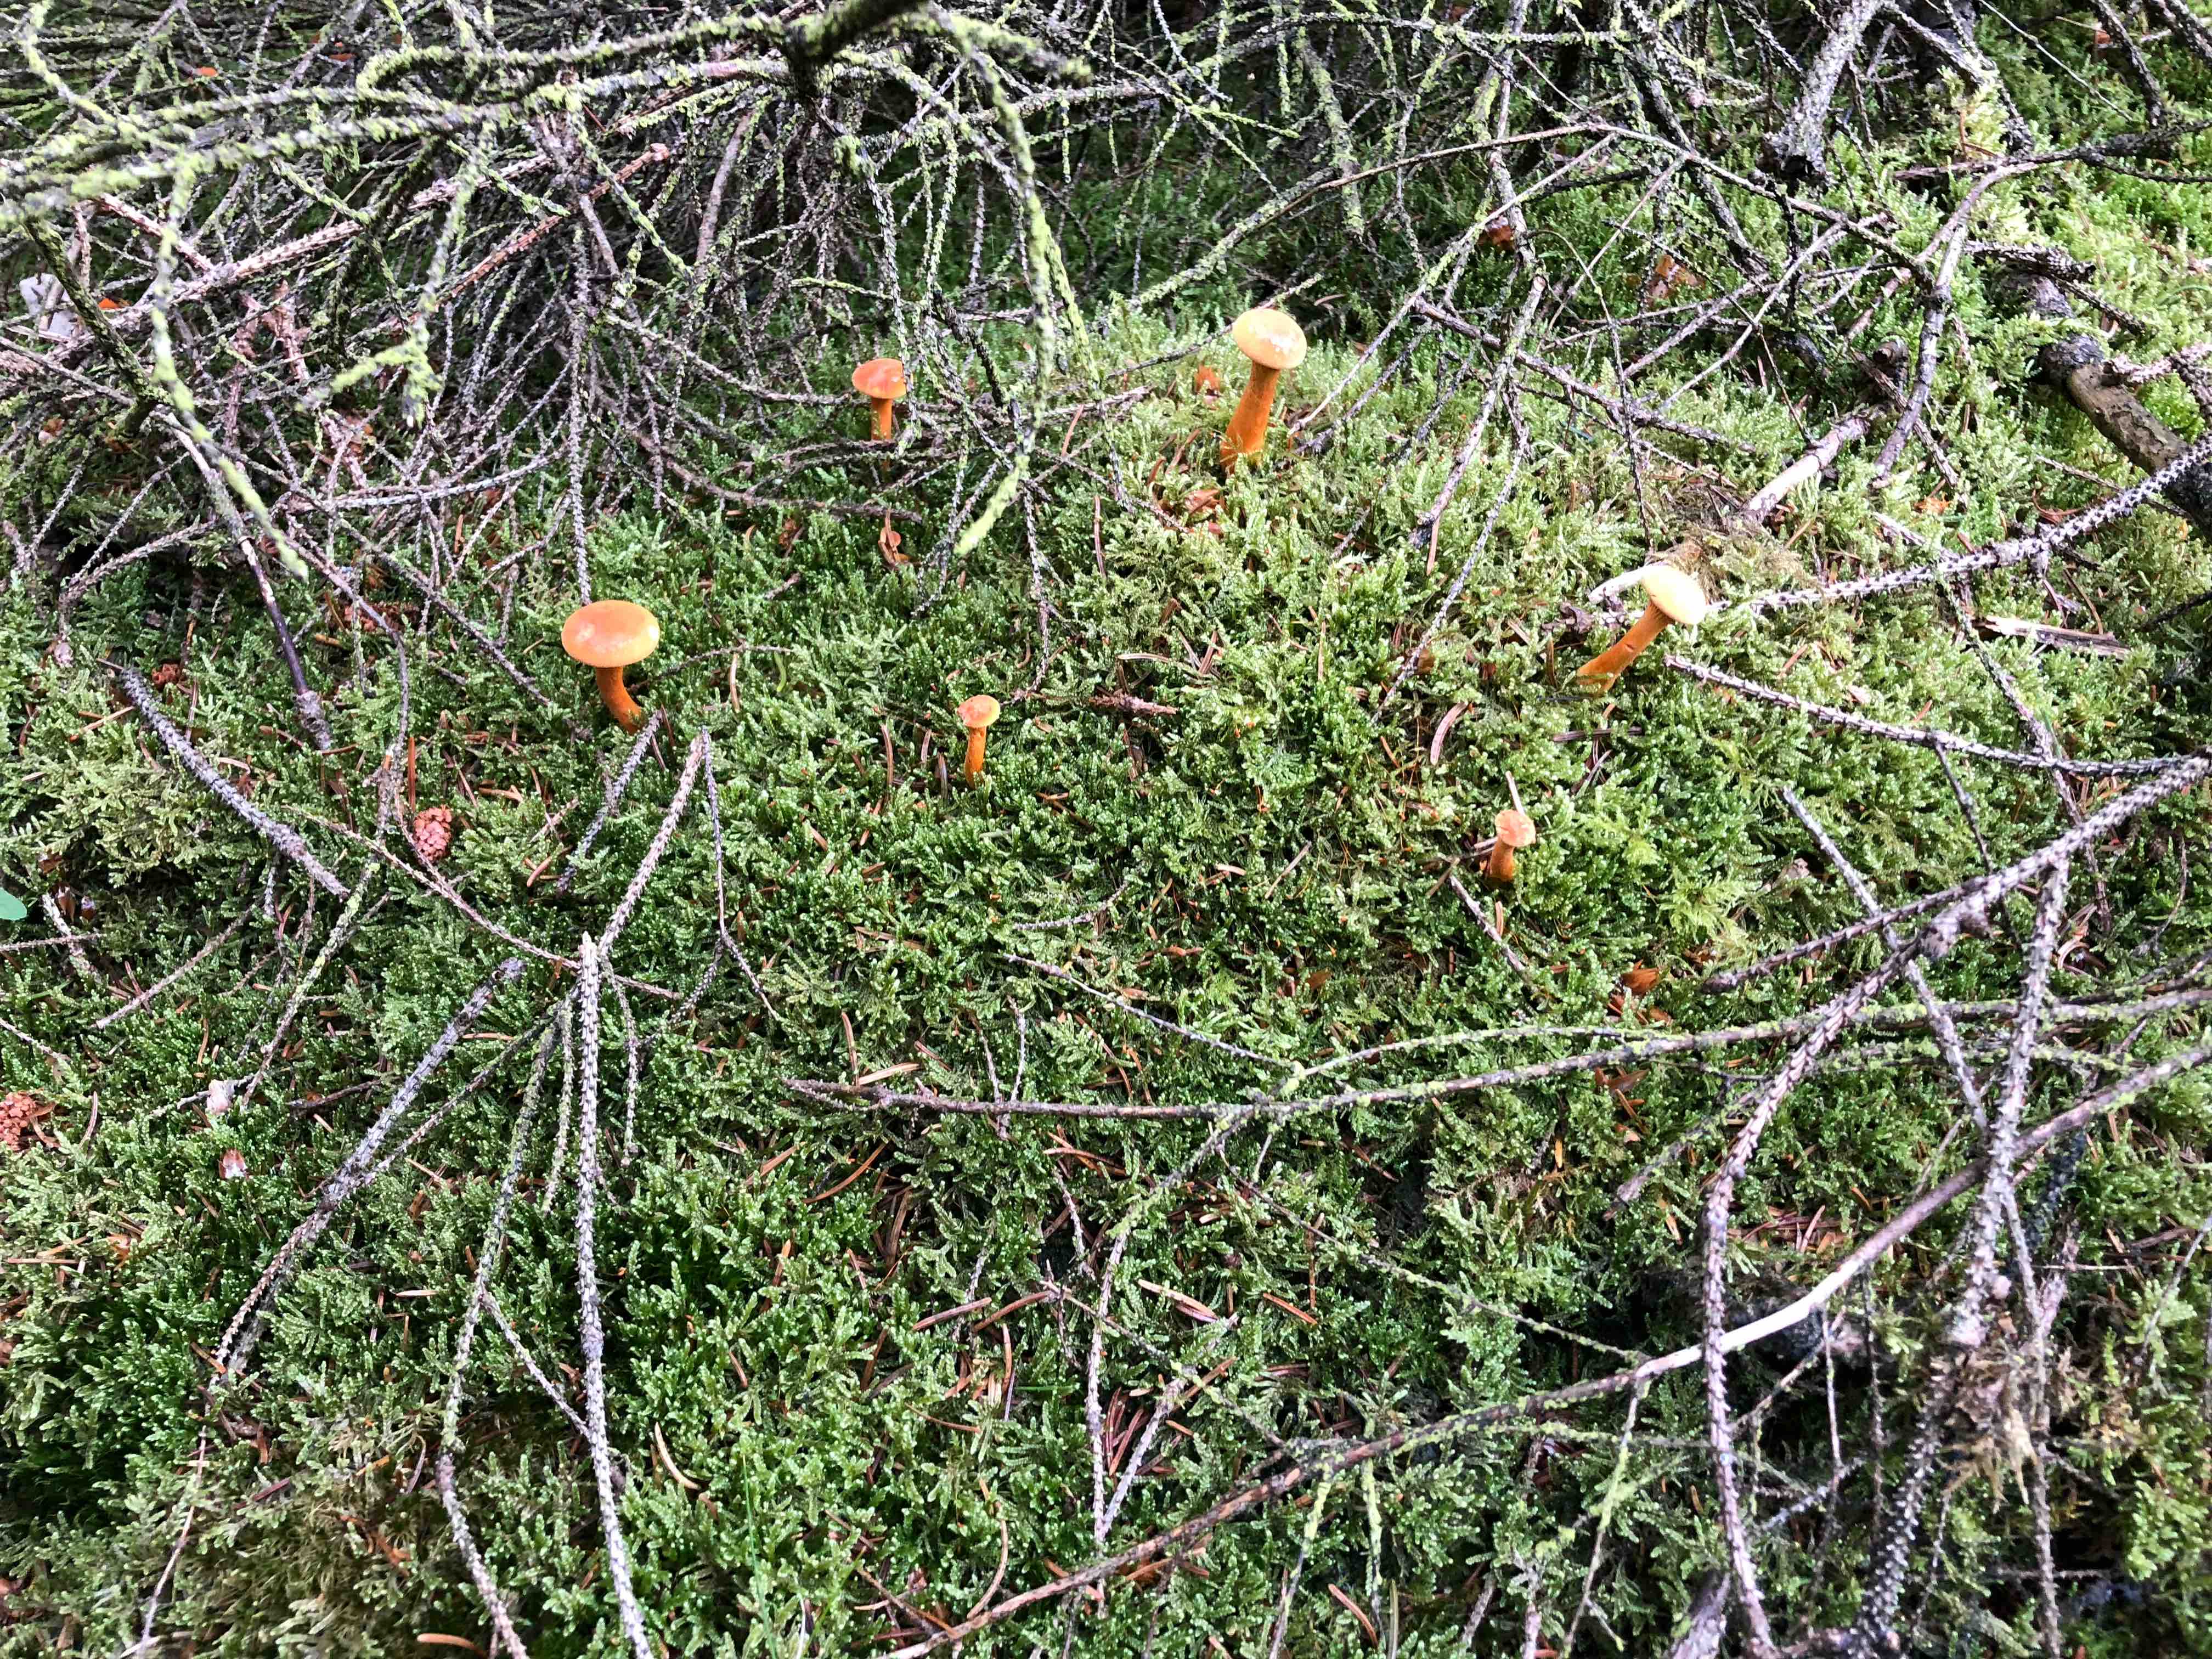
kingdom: Fungi
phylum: Basidiomycota
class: Agaricomycetes
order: Boletales
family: Hygrophoropsidaceae
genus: Hygrophoropsis
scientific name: Hygrophoropsis aurantiaca
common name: almindelig orangekantarel
